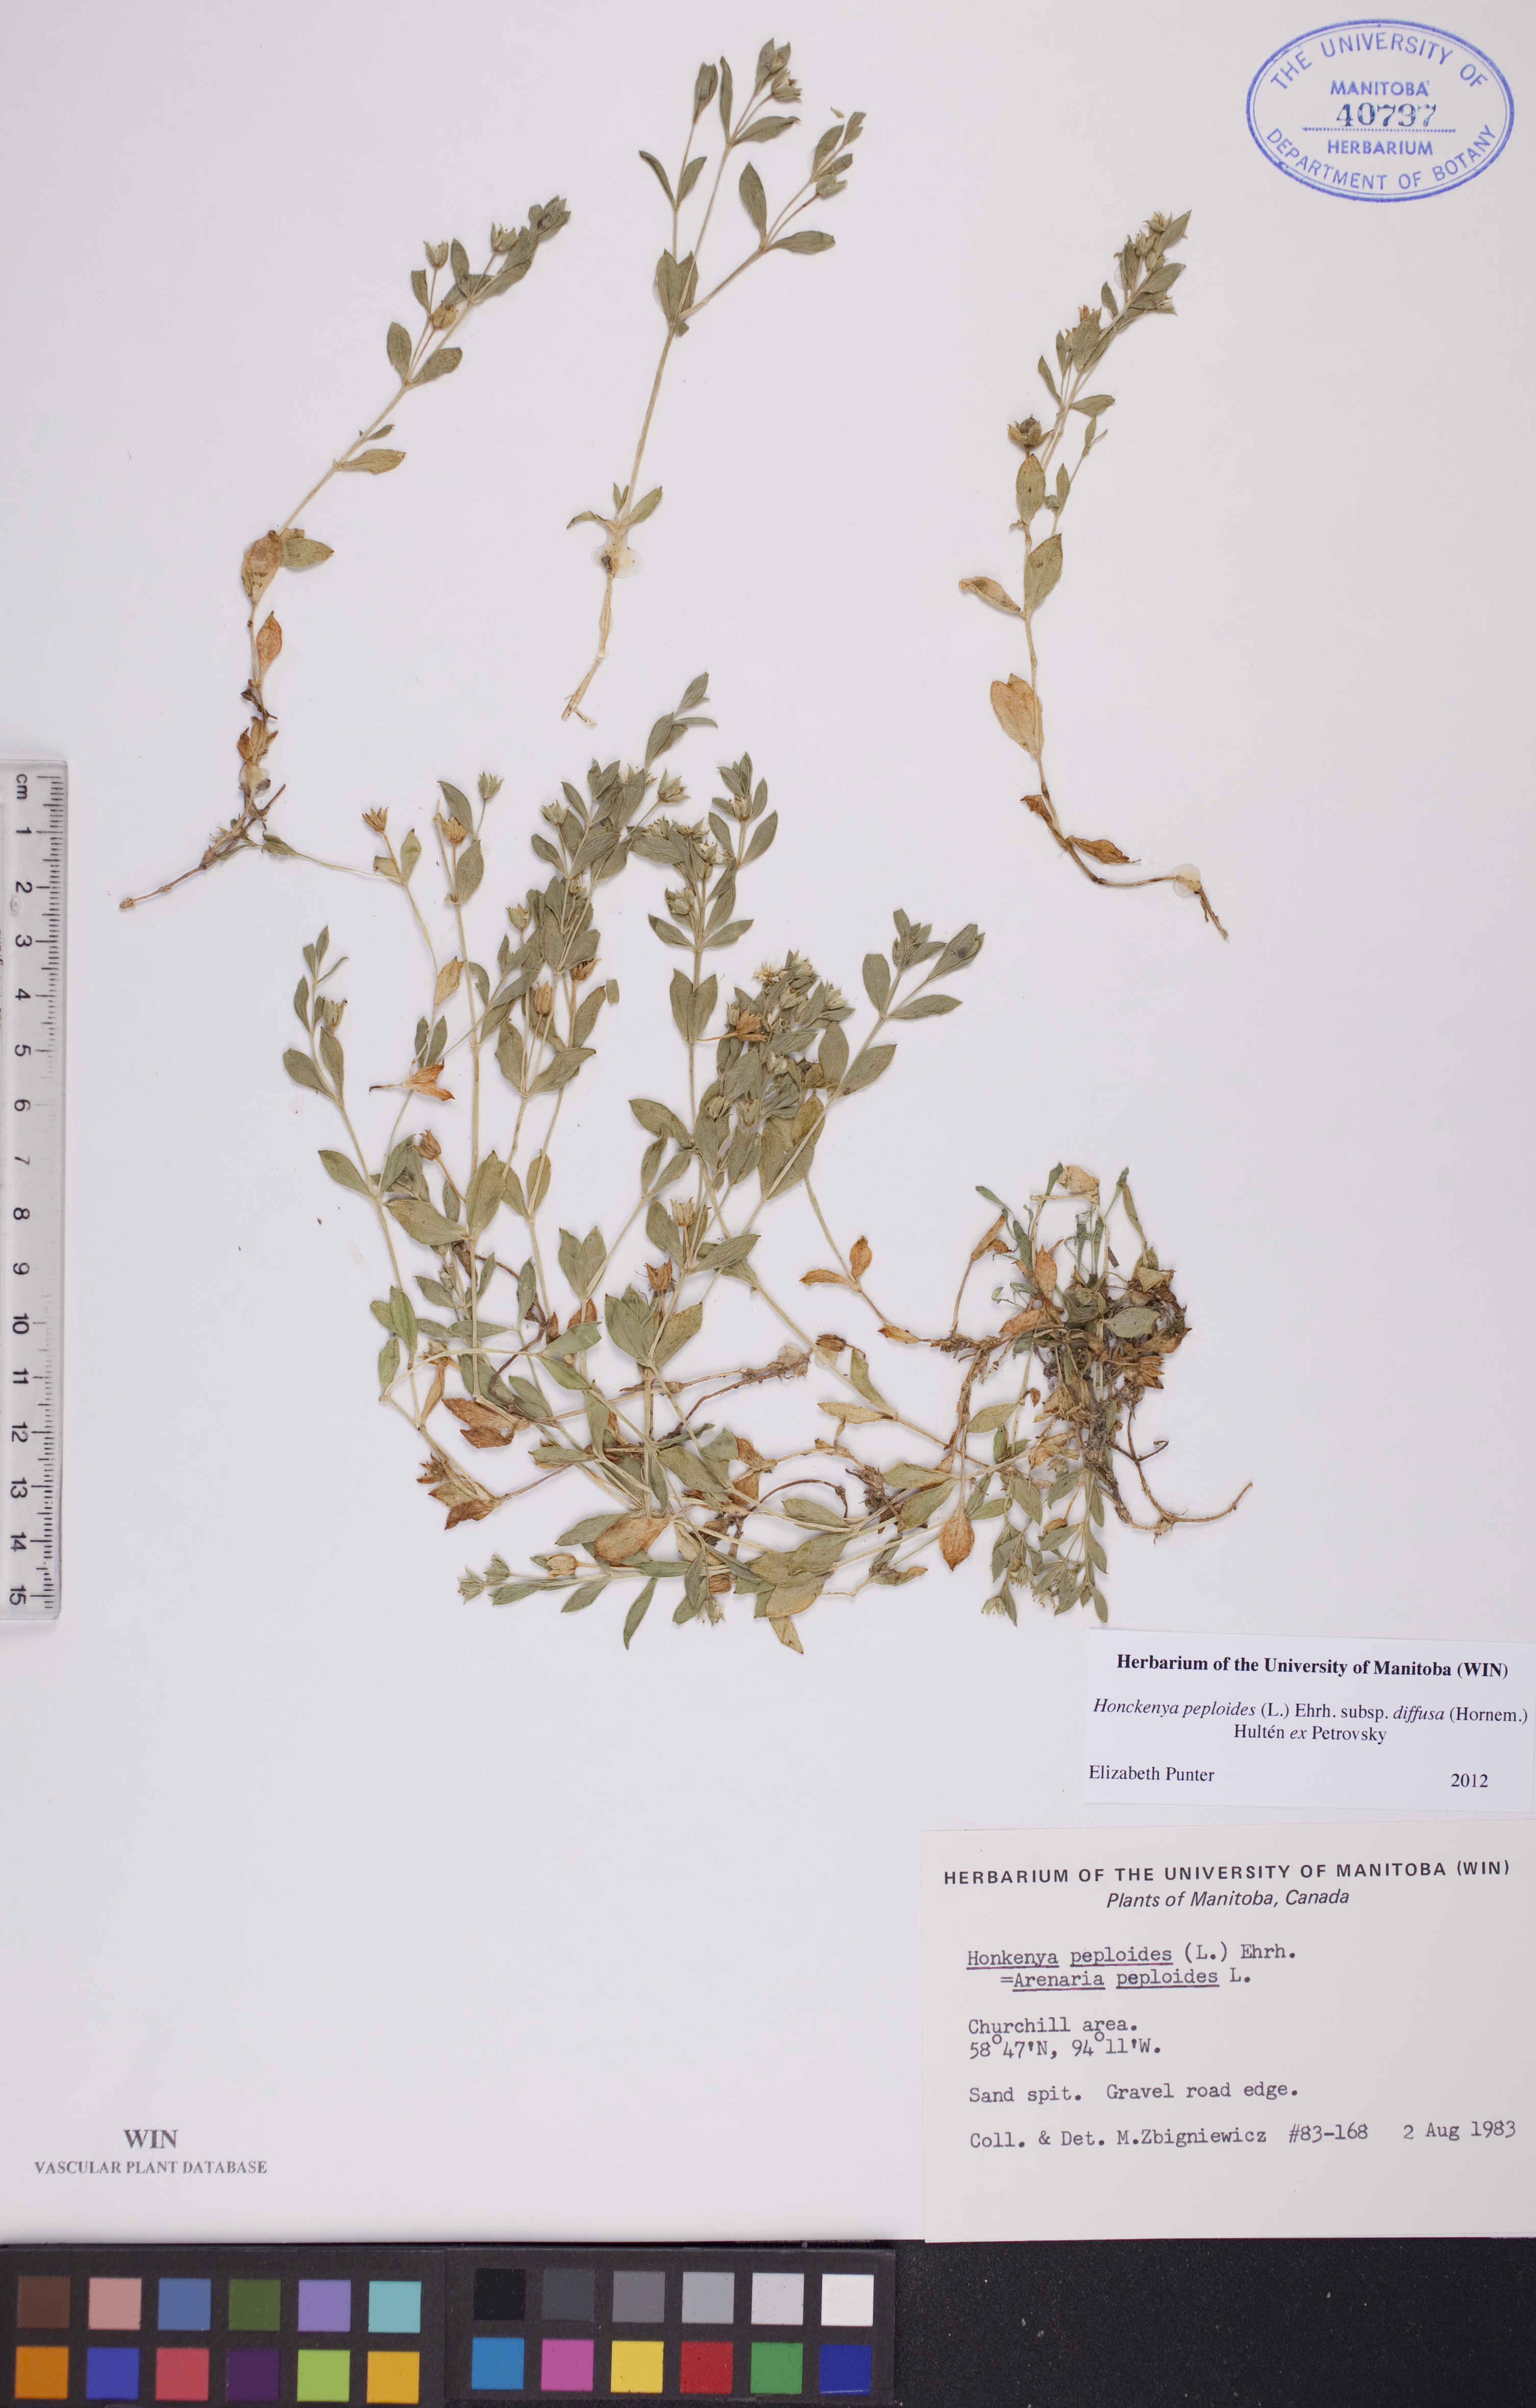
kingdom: Plantae
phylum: Tracheophyta
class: Magnoliopsida
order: Caryophyllales
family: Caryophyllaceae
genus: Honckenya
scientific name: Honckenya peploides
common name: Sea sandwort
